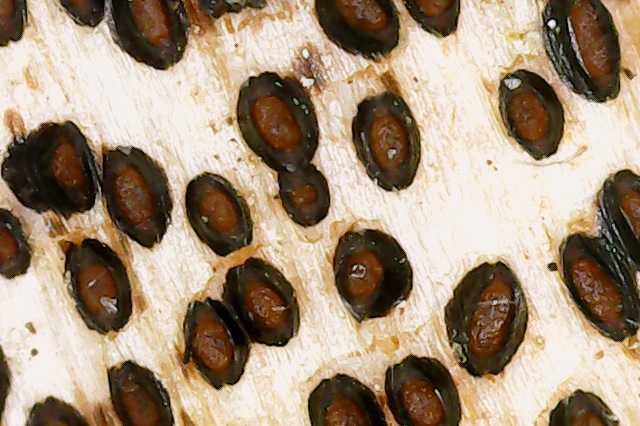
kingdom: Fungi
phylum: Ascomycota
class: Leotiomycetes
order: Rhytismatales
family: Rhytismataceae
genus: Lophodermium
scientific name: Lophodermium paeoniae
